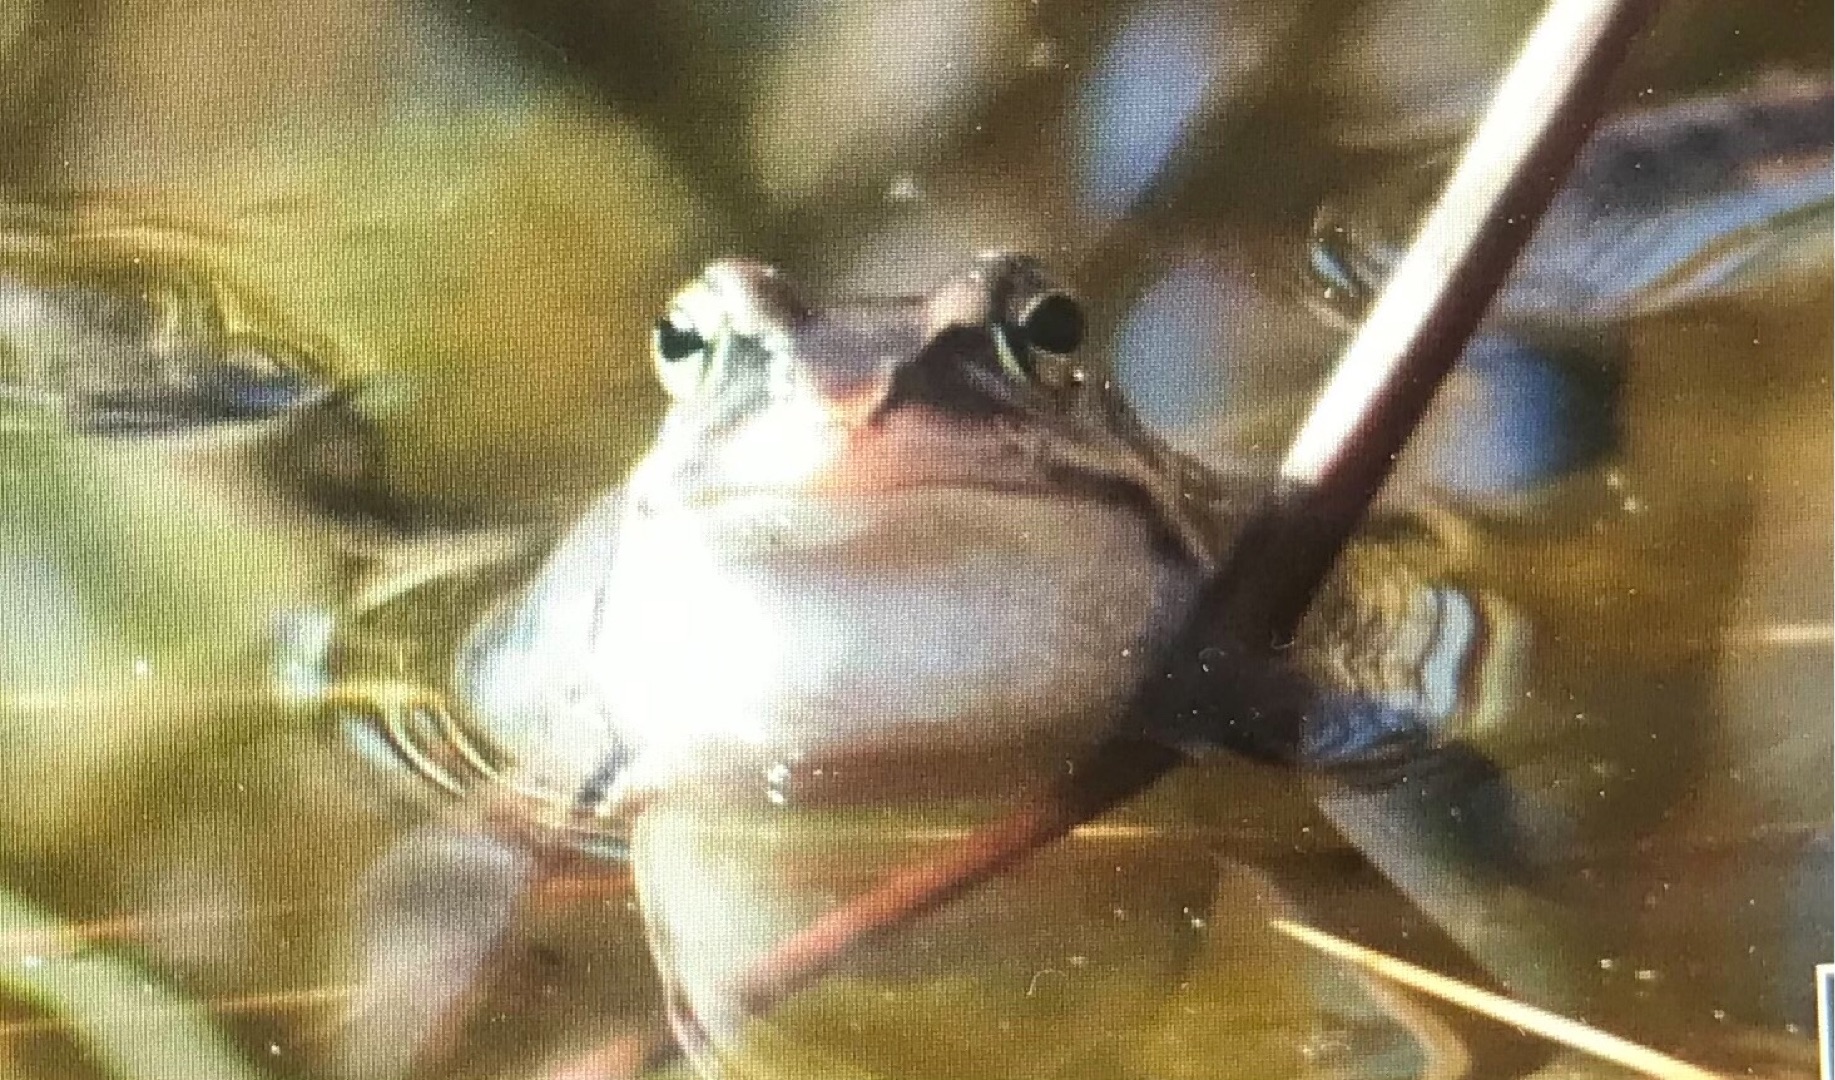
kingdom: Animalia
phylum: Chordata
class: Amphibia
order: Anura
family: Ranidae
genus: Rana
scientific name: Rana arvalis
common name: Spidssnudet frø
